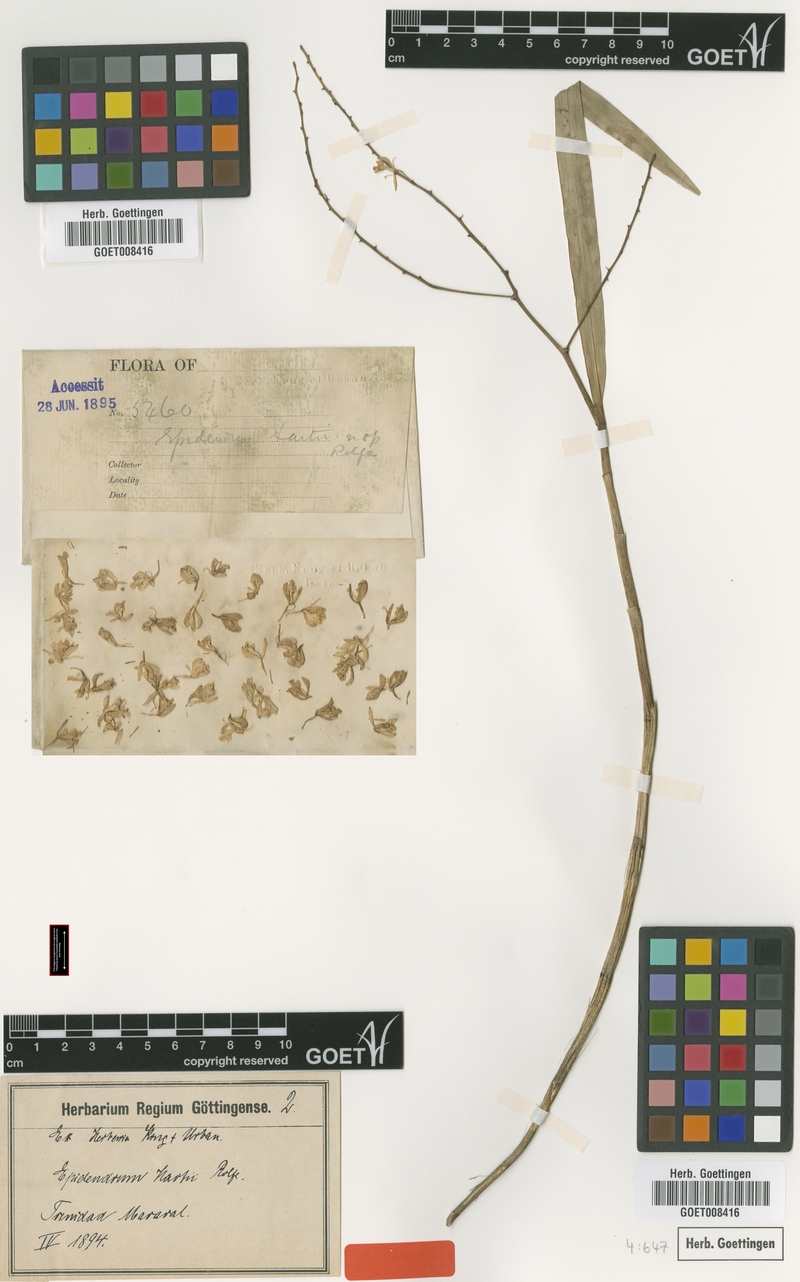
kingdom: Plantae
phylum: Tracheophyta
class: Liliopsida
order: Asparagales
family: Orchidaceae
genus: Epidendrum
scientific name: Epidendrum subpurum
